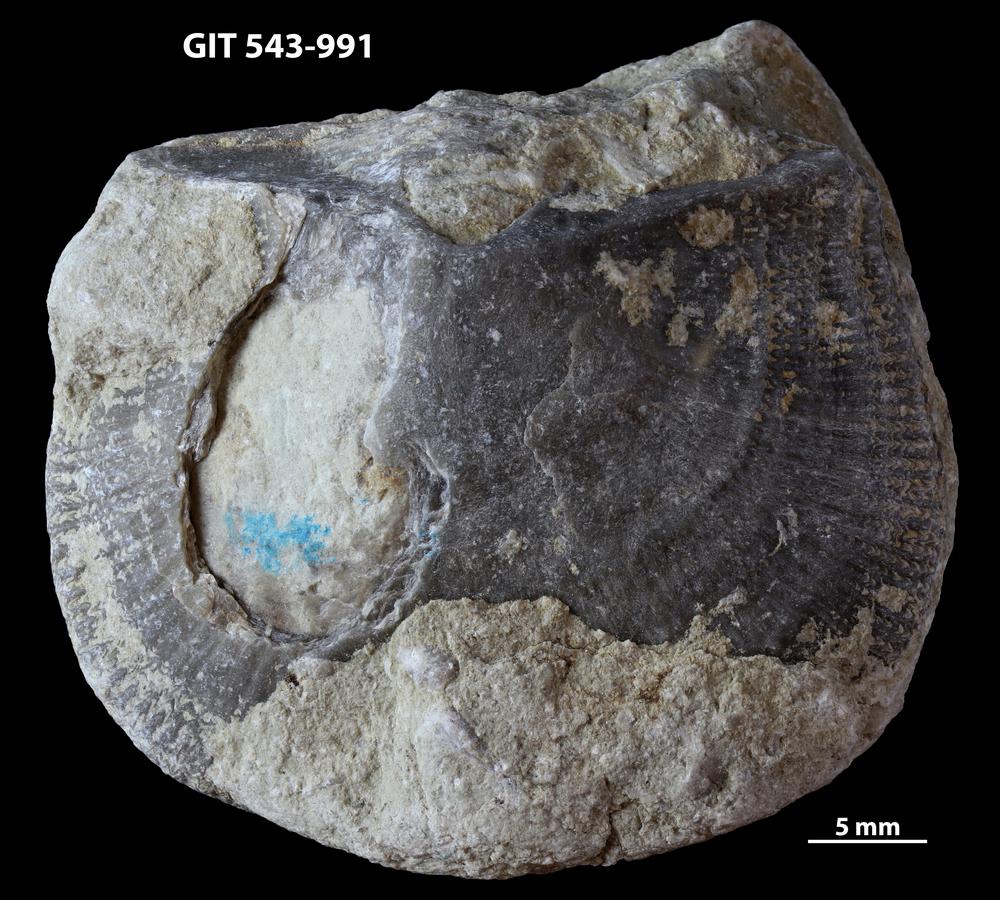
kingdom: Animalia
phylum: Brachiopoda
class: Rhynchonellata
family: Clitambonitidae
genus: Ilmarinia
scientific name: Ilmarinia Orthisina sinuata
